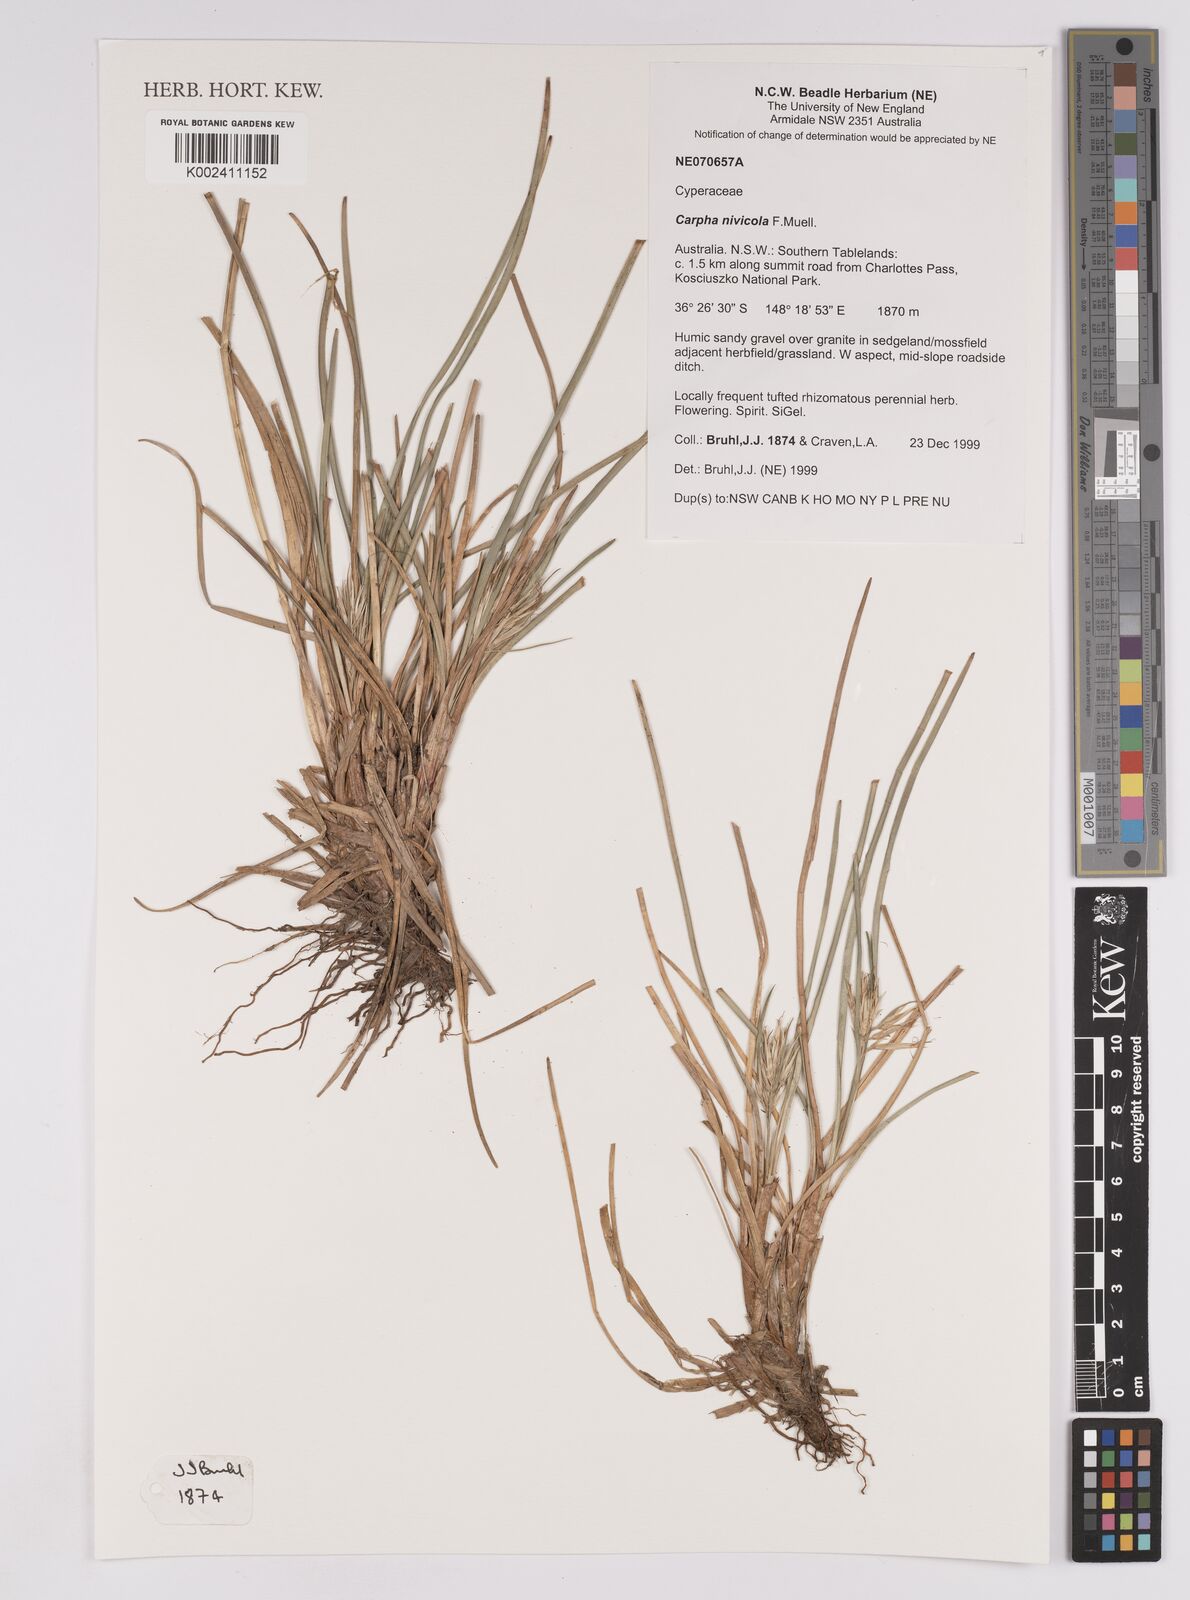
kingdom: Plantae
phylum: Tracheophyta
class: Liliopsida
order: Poales
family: Cyperaceae
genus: Carpha
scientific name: Carpha nivicola
